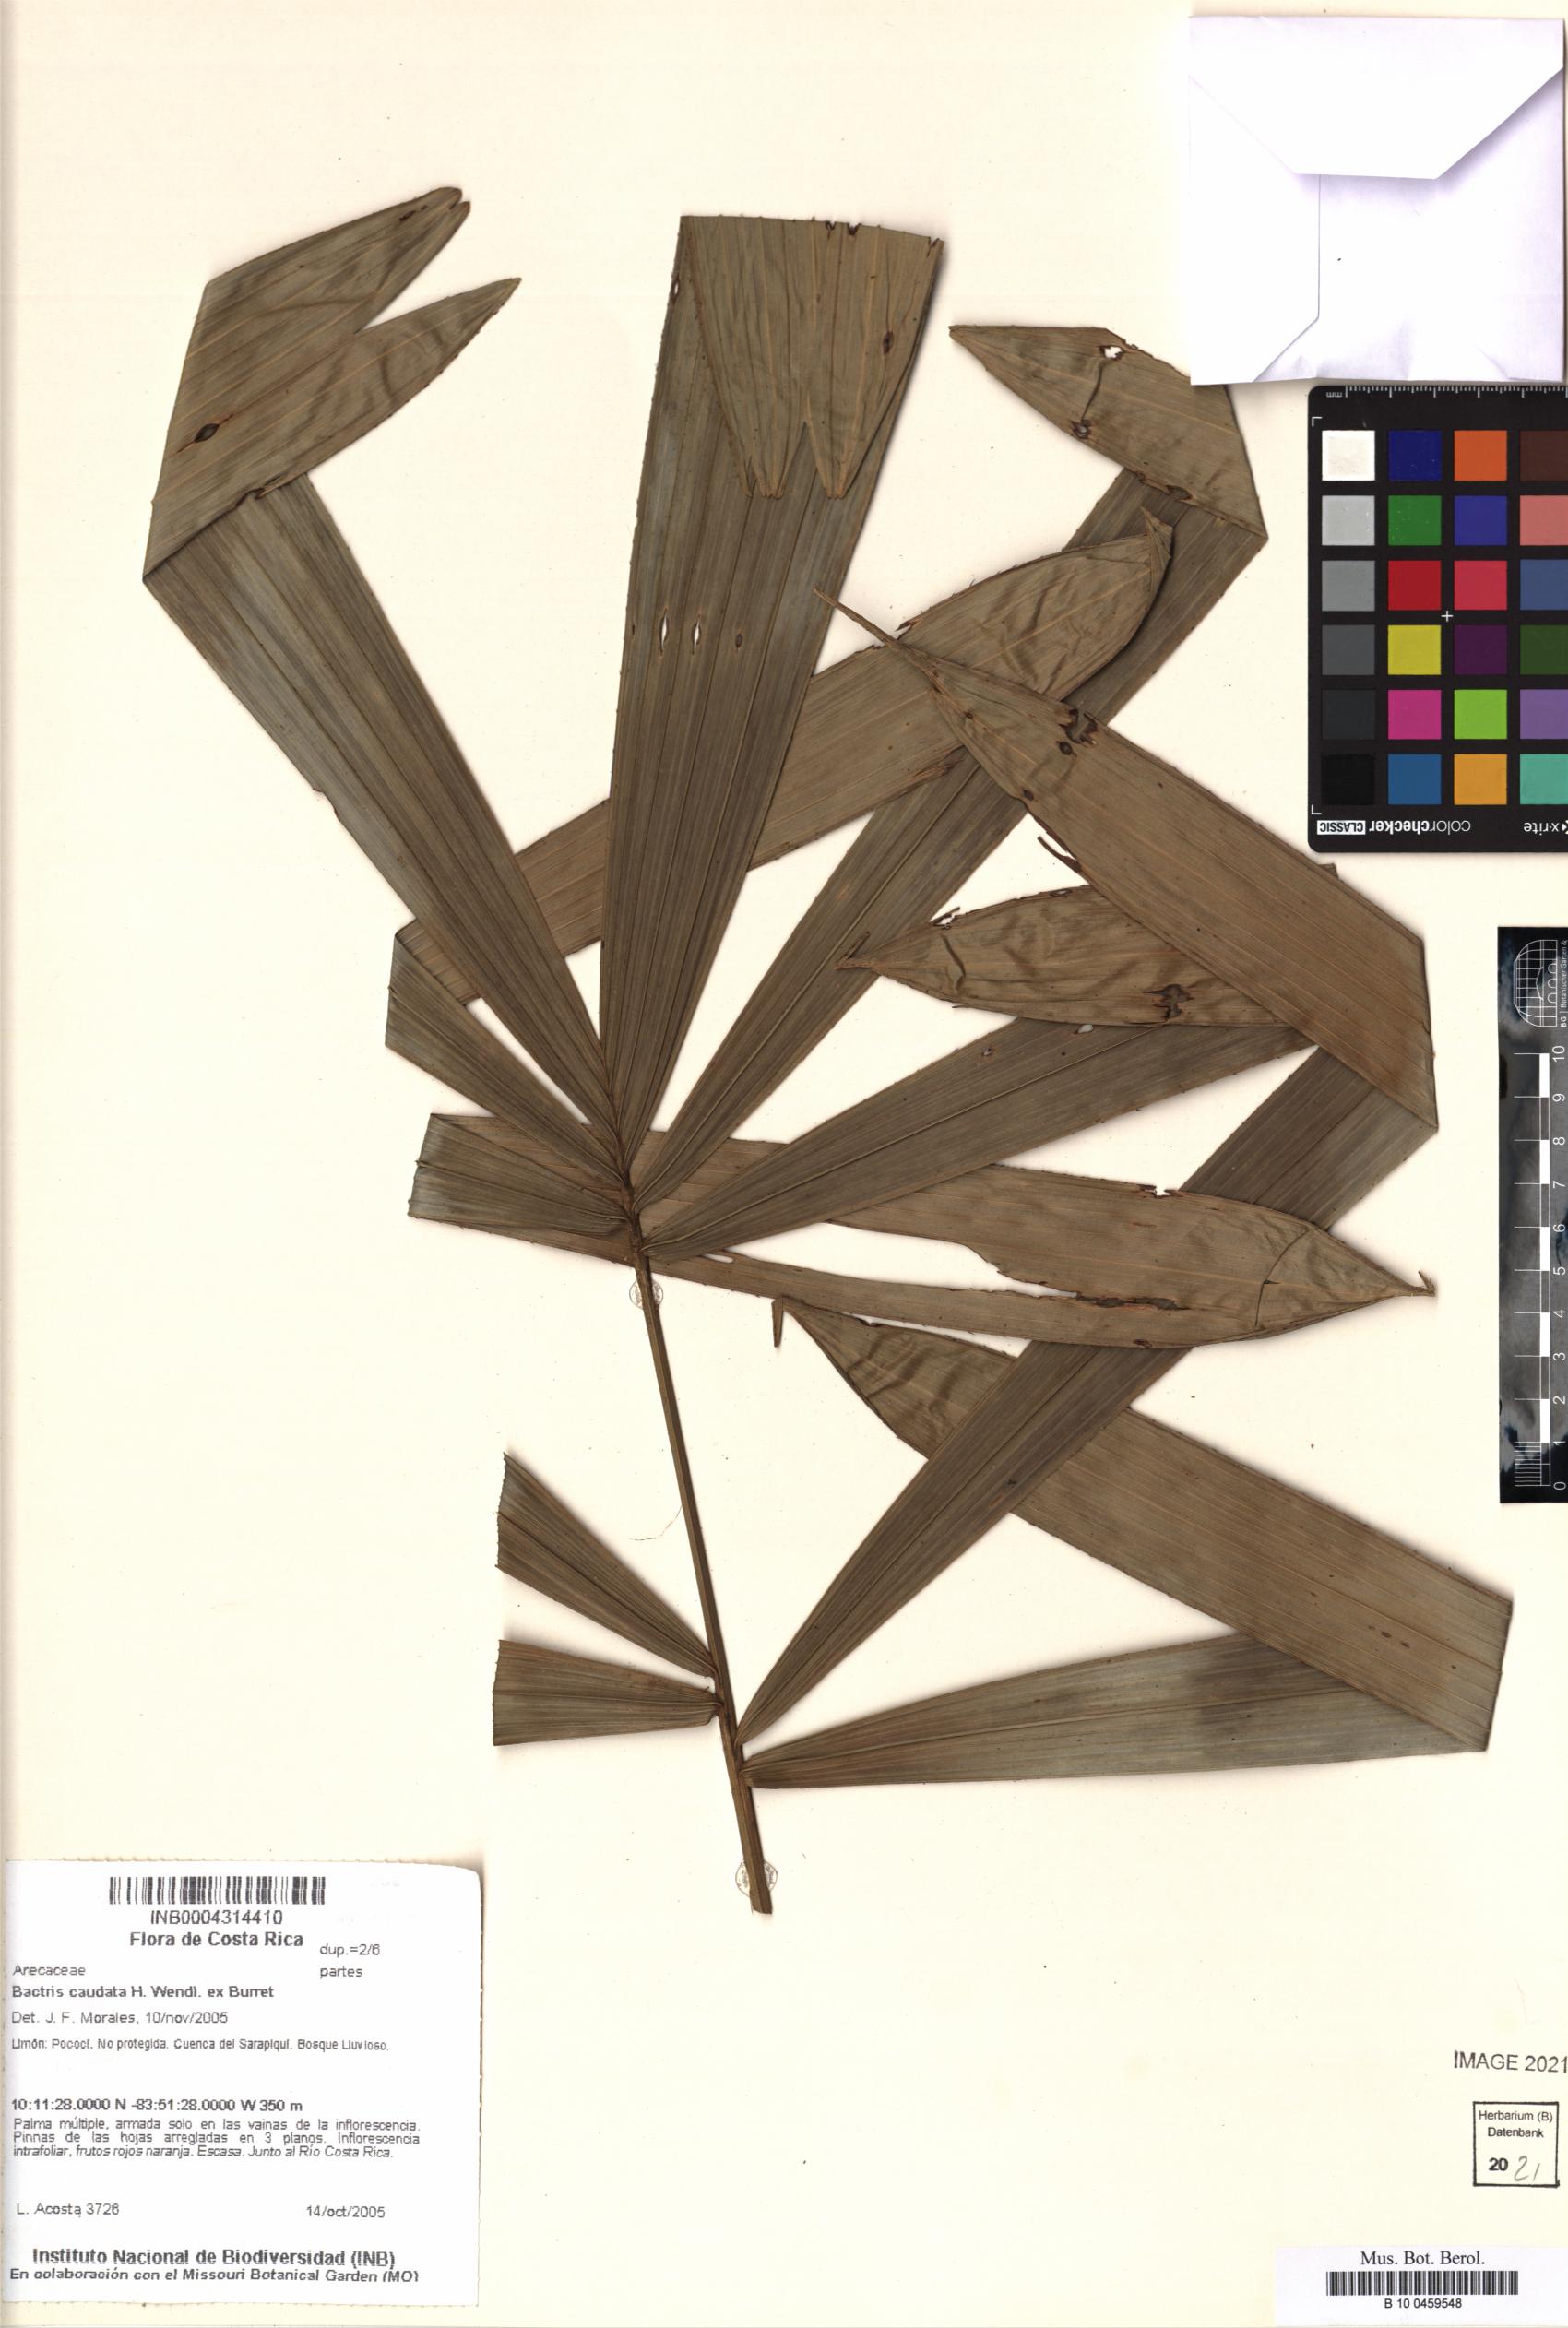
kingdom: Plantae
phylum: Tracheophyta
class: Liliopsida
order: Arecales
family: Arecaceae
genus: Bactris
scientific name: Bactris caudata
